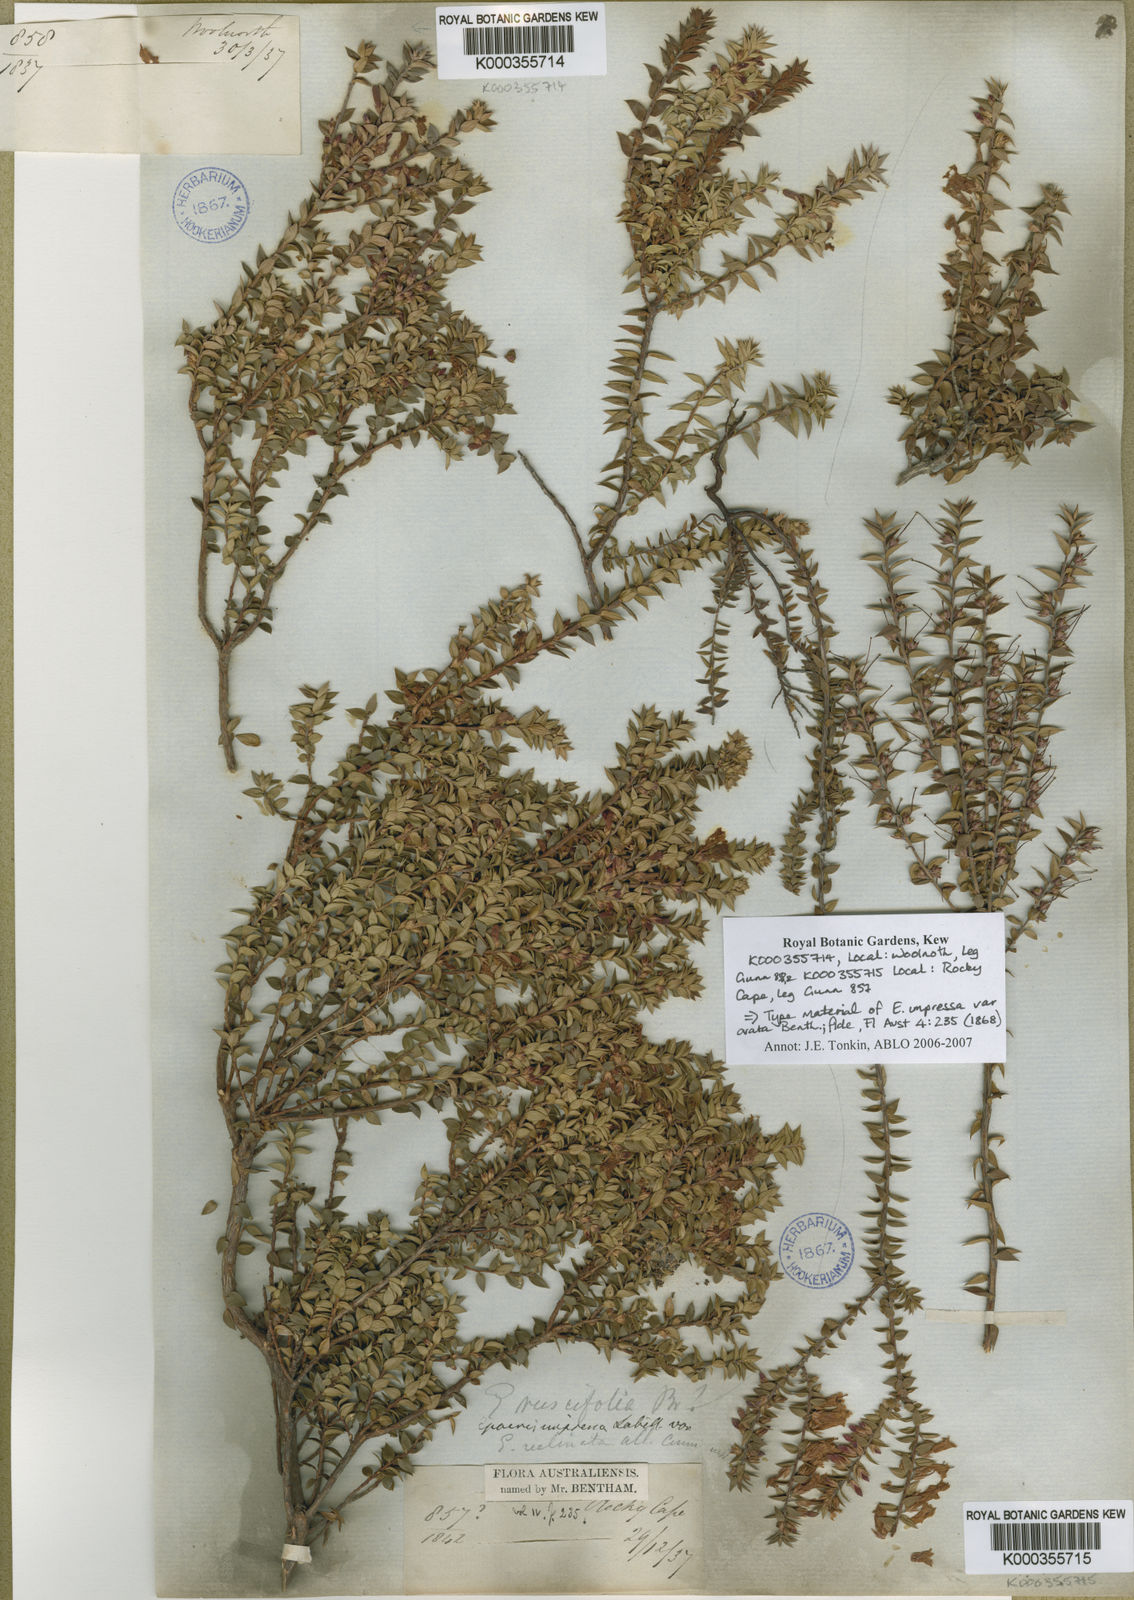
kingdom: Plantae
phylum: Tracheophyta
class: Magnoliopsida
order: Ericales
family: Ericaceae
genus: Epacris
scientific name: Epacris impressa
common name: Common-heath
